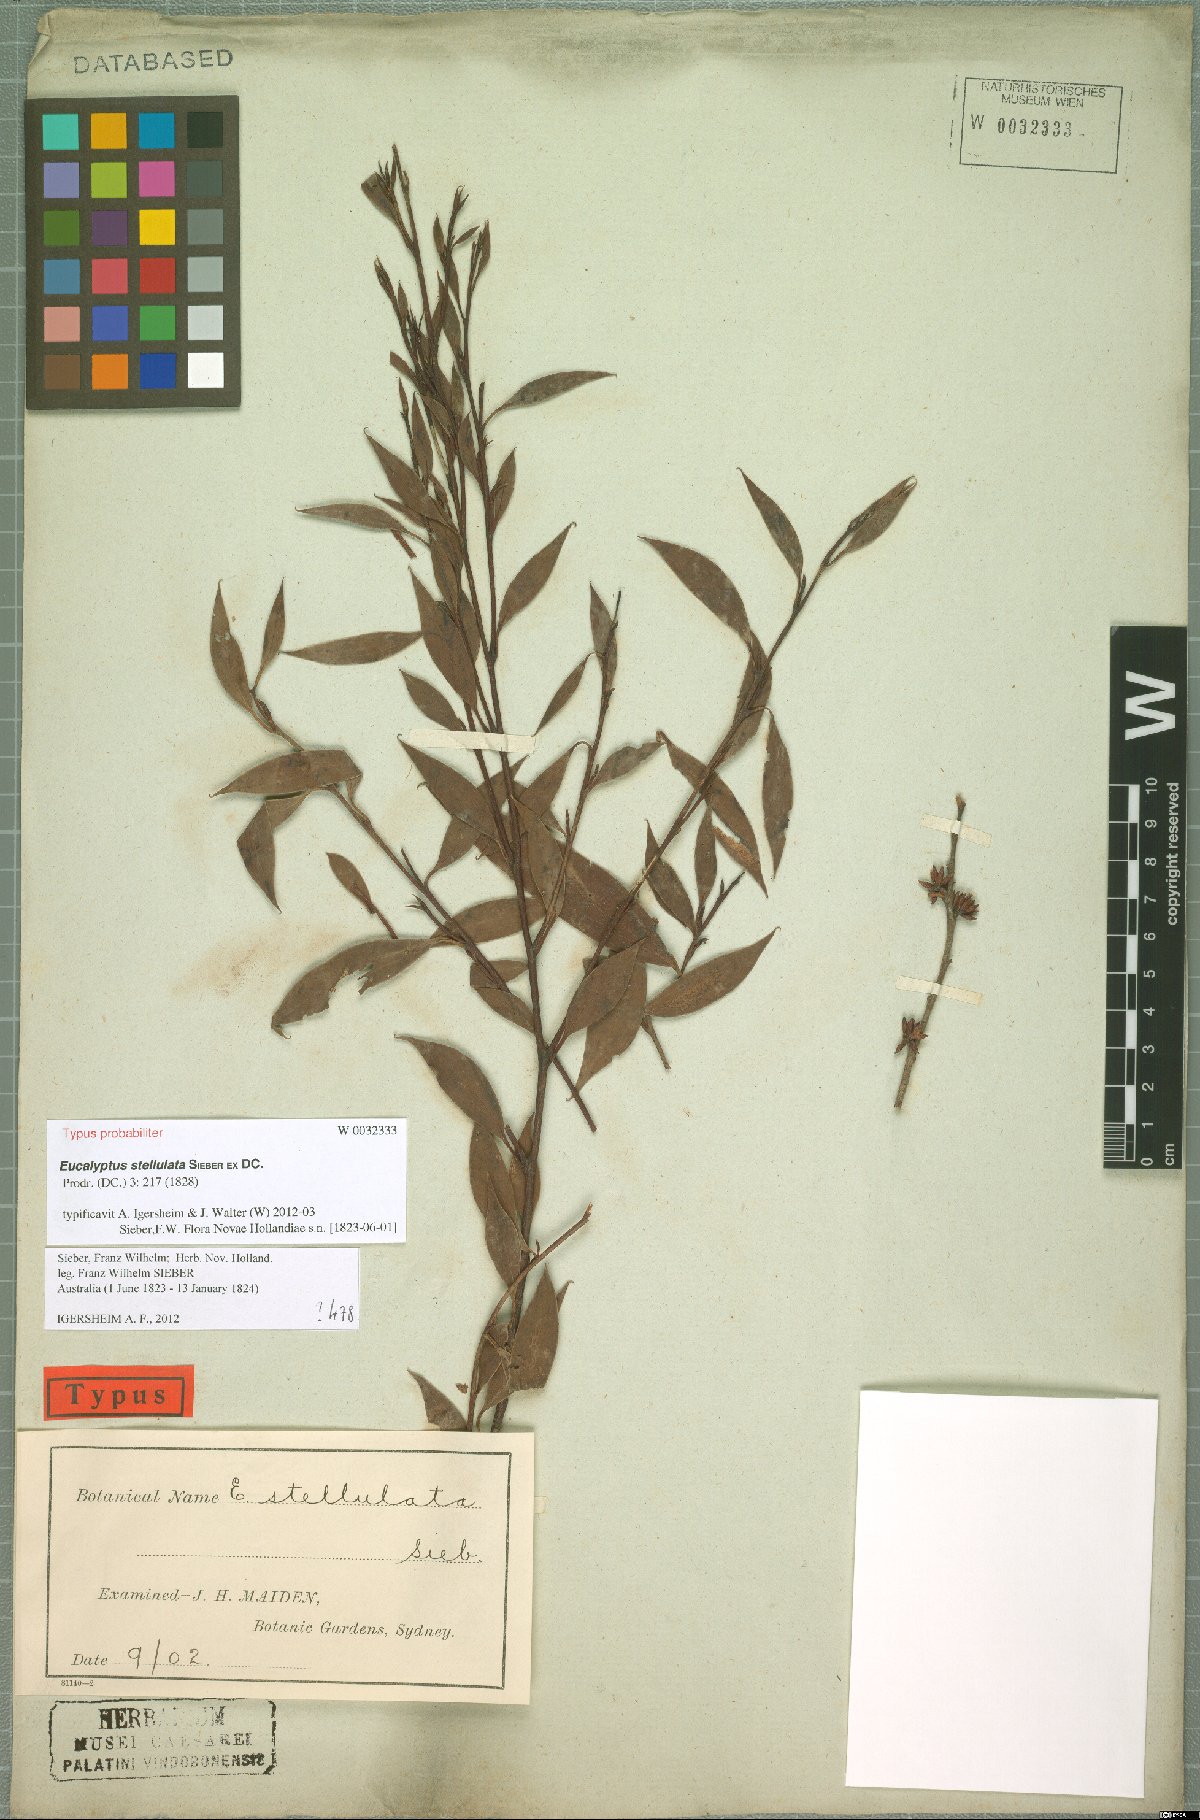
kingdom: Plantae
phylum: Tracheophyta
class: Magnoliopsida
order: Myrtales
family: Myrtaceae
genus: Eucalyptus
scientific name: Eucalyptus stellulata
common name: Black sallee
